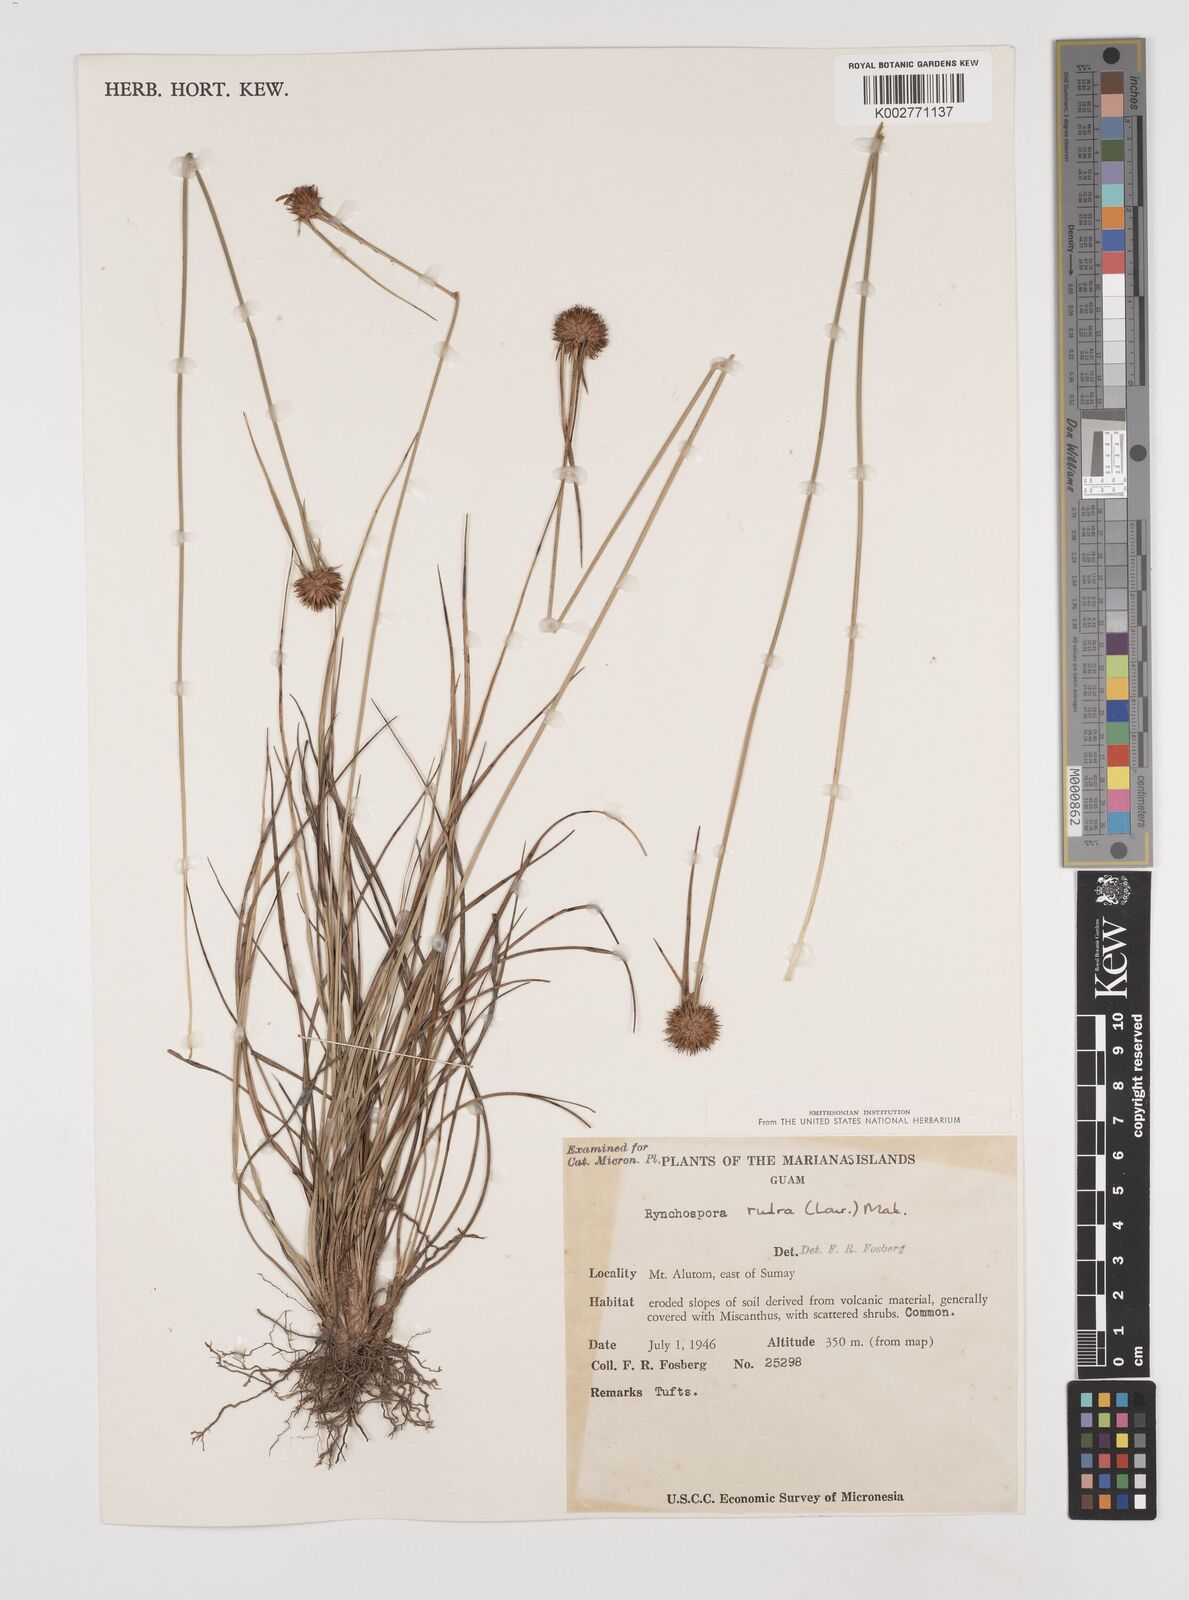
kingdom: Plantae
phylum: Tracheophyta
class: Liliopsida
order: Poales
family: Cyperaceae
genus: Rhynchospora
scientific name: Rhynchospora rubra
